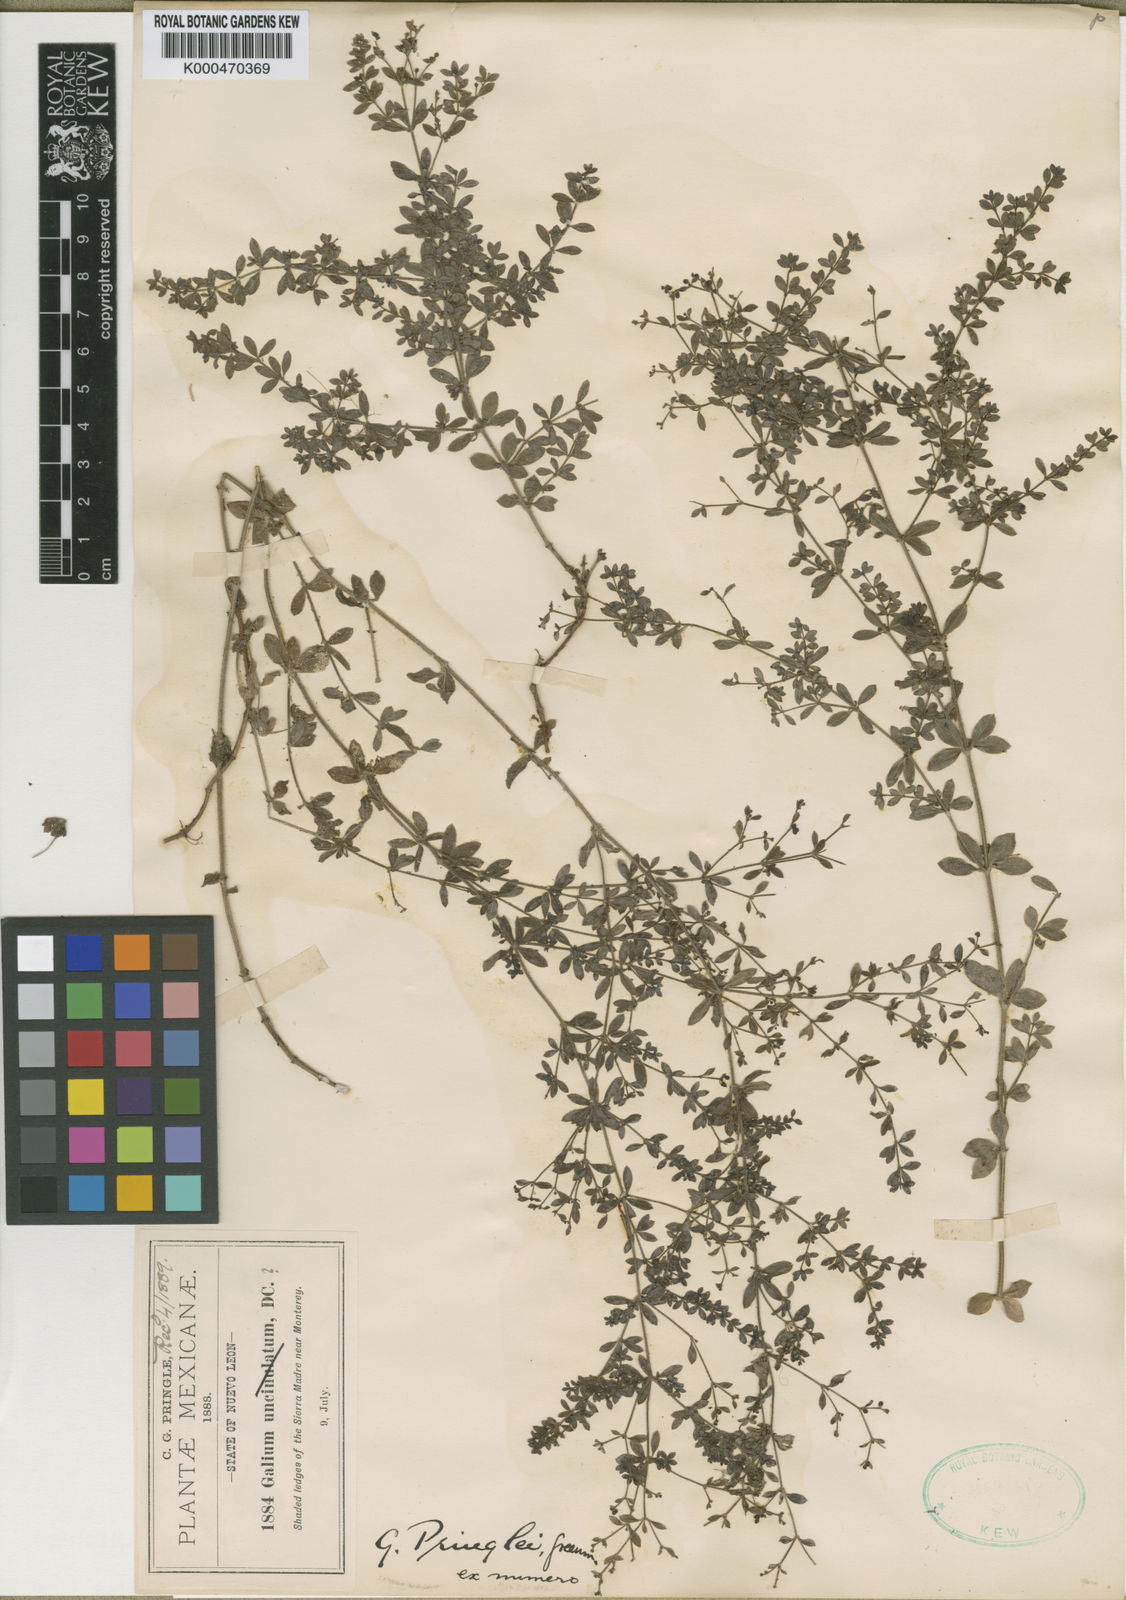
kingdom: Plantae
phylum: Tracheophyta
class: Magnoliopsida
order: Gentianales
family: Rubiaceae
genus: Galium
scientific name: Galium pringlei
